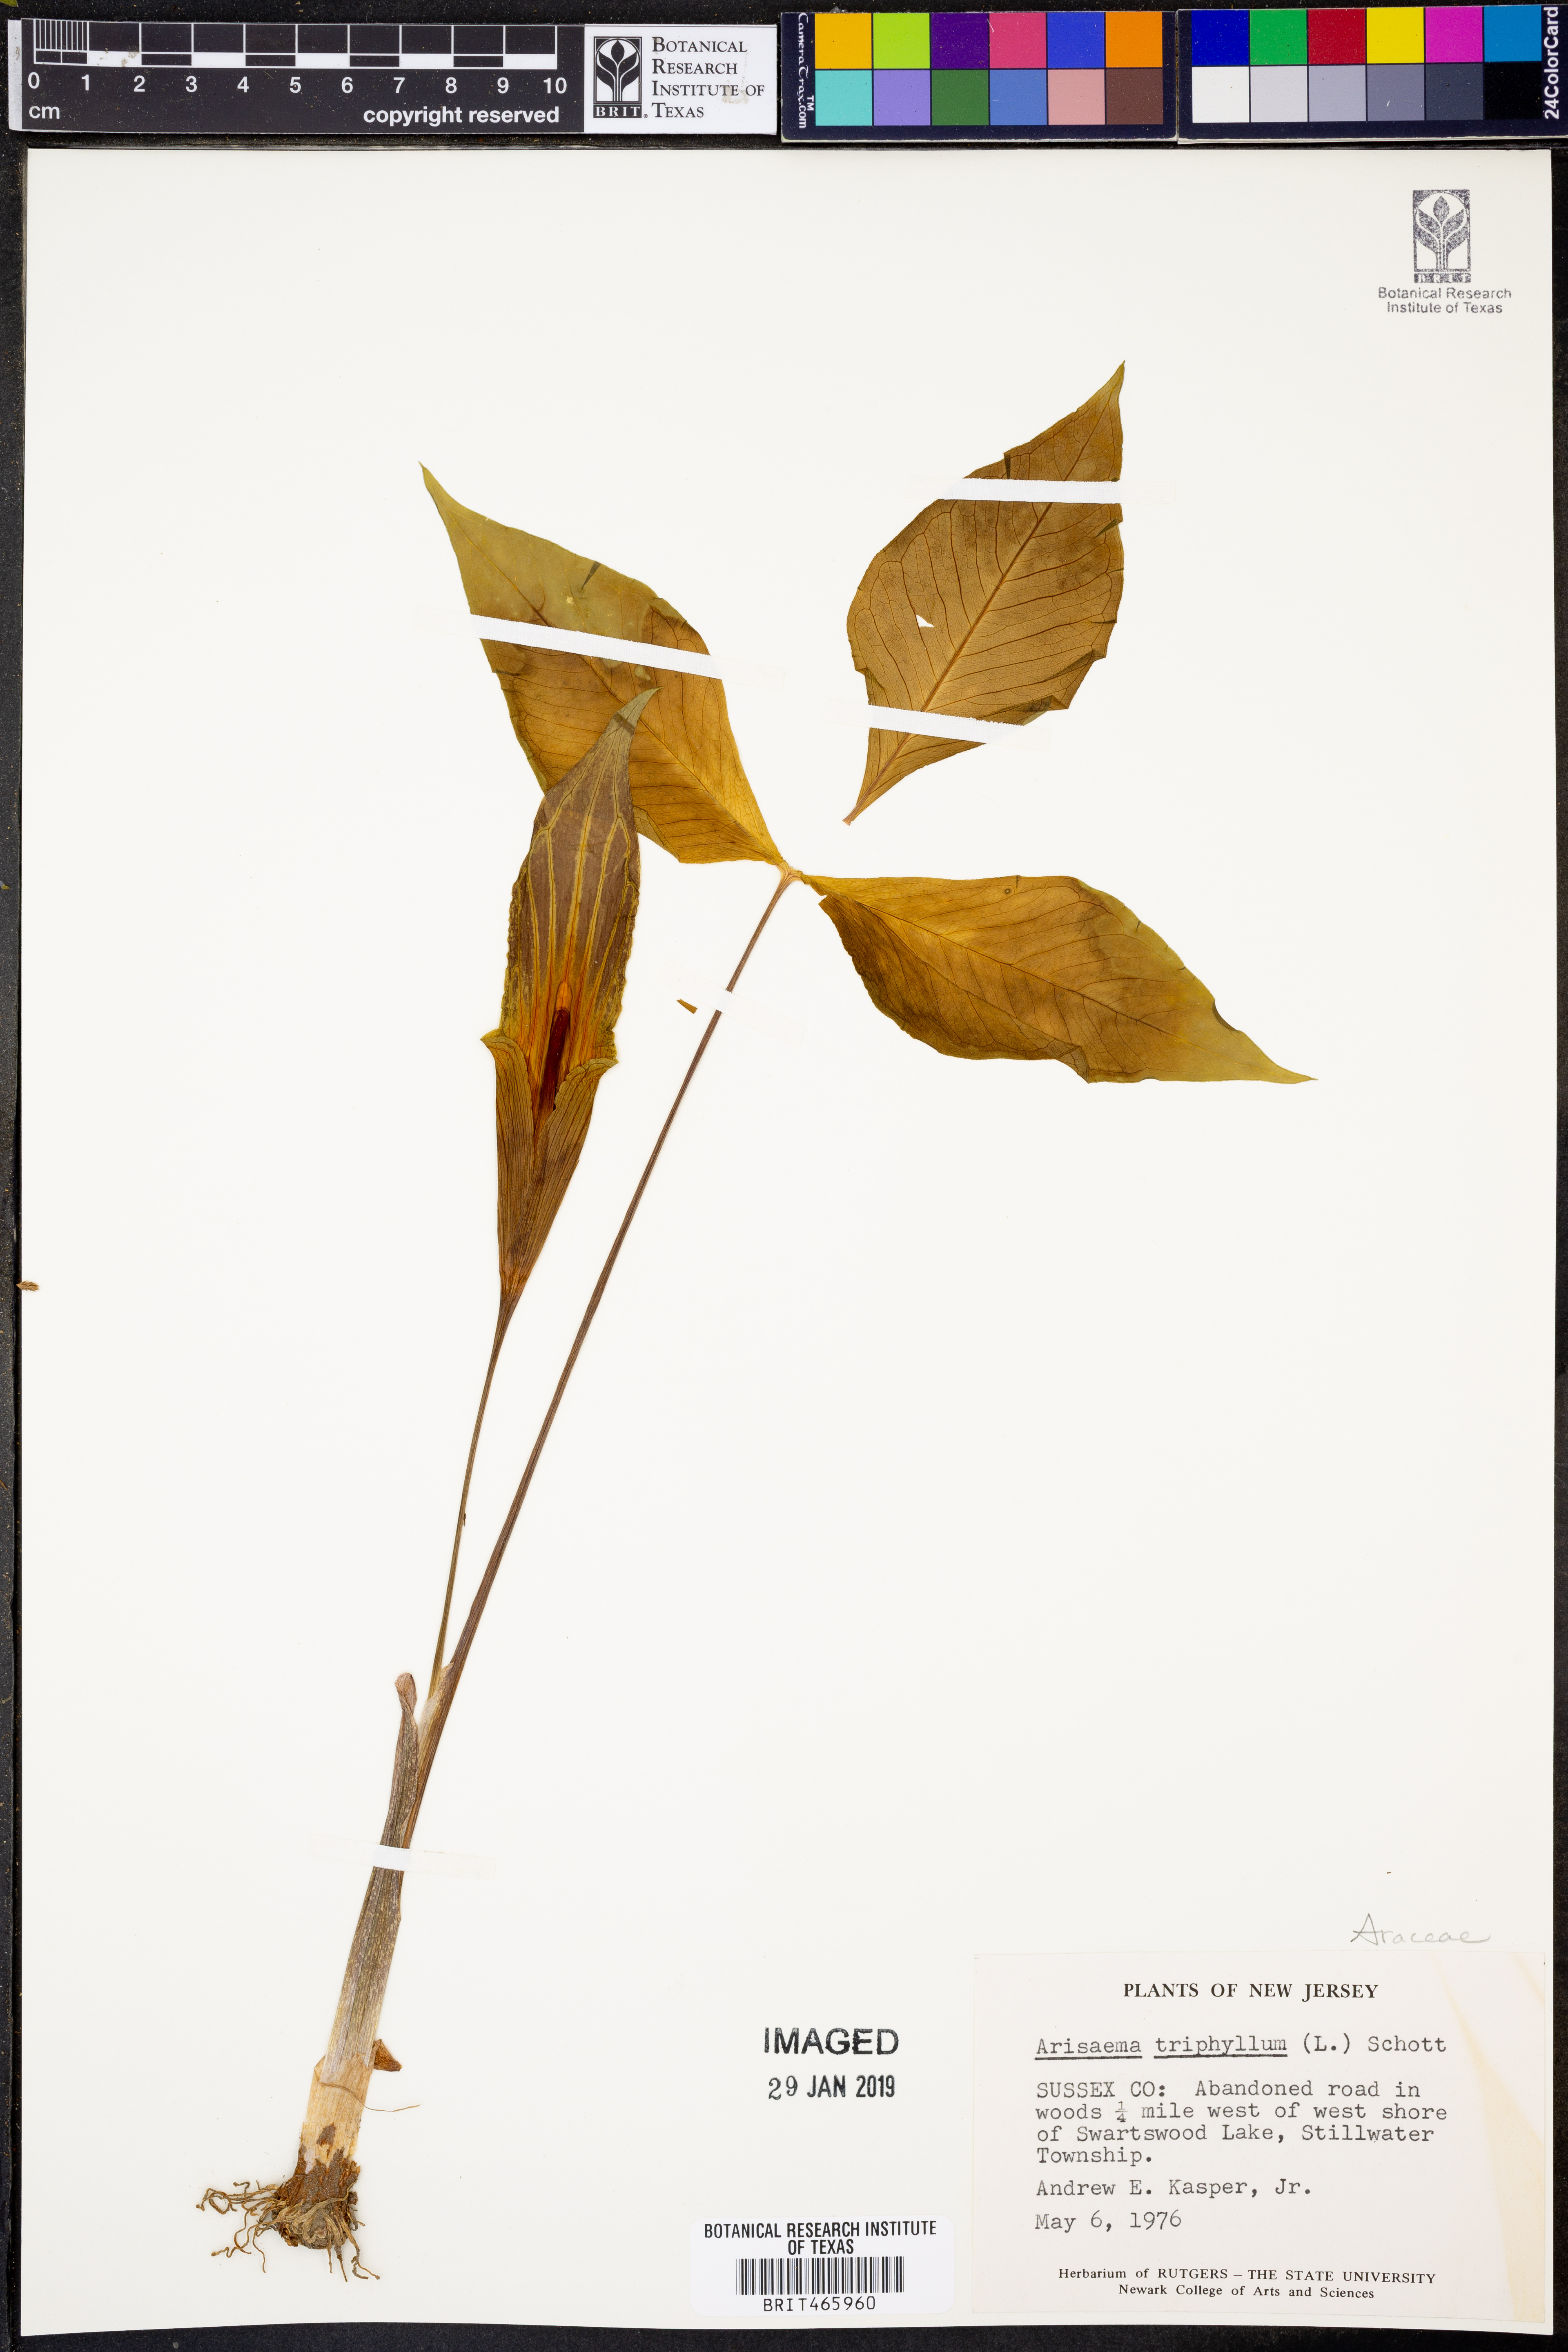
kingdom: Plantae
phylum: Tracheophyta
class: Liliopsida
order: Alismatales
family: Araceae
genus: Arisaema
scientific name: Arisaema triphyllum
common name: Jack-in-the-pulpit
